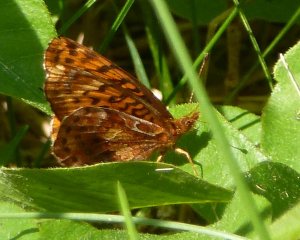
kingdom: Animalia
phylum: Arthropoda
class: Insecta
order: Lepidoptera
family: Nymphalidae
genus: Clossiana
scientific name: Clossiana toddi
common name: Meadow Fritillary
